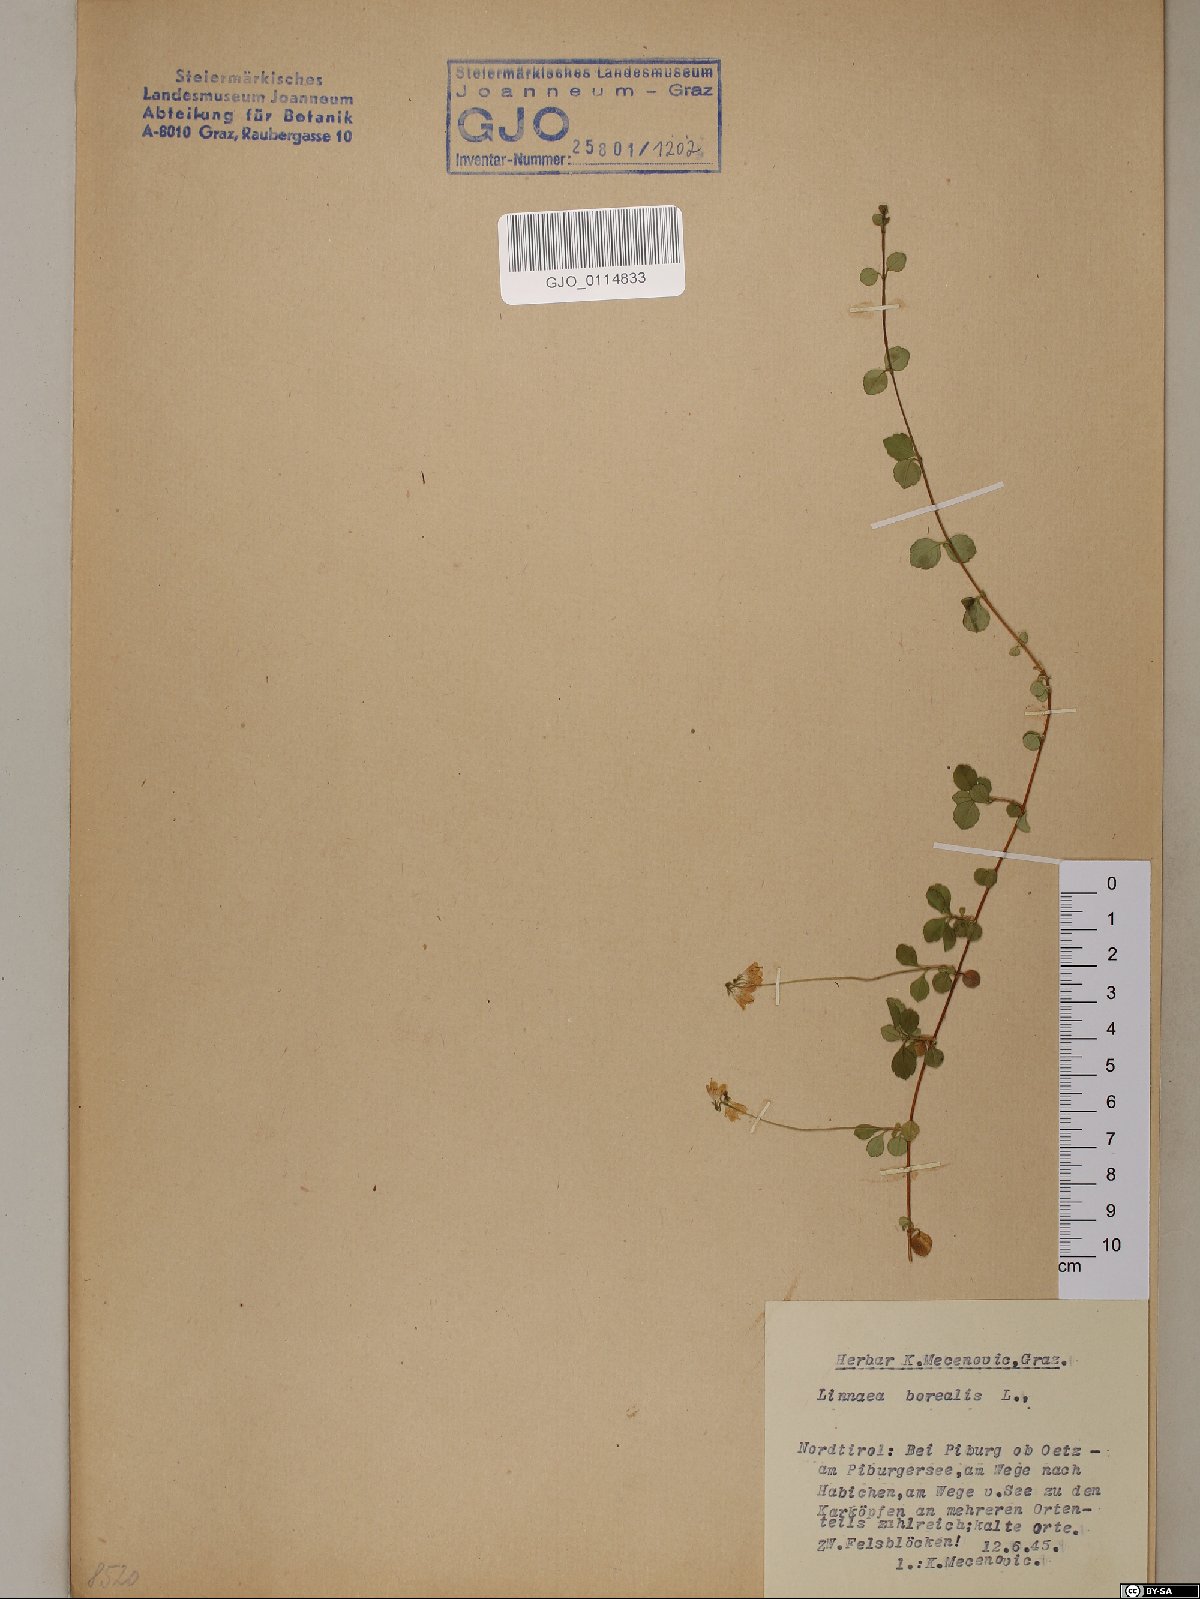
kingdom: Plantae
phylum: Tracheophyta
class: Magnoliopsida
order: Dipsacales
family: Caprifoliaceae
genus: Linnaea
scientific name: Linnaea borealis
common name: Twinflower
